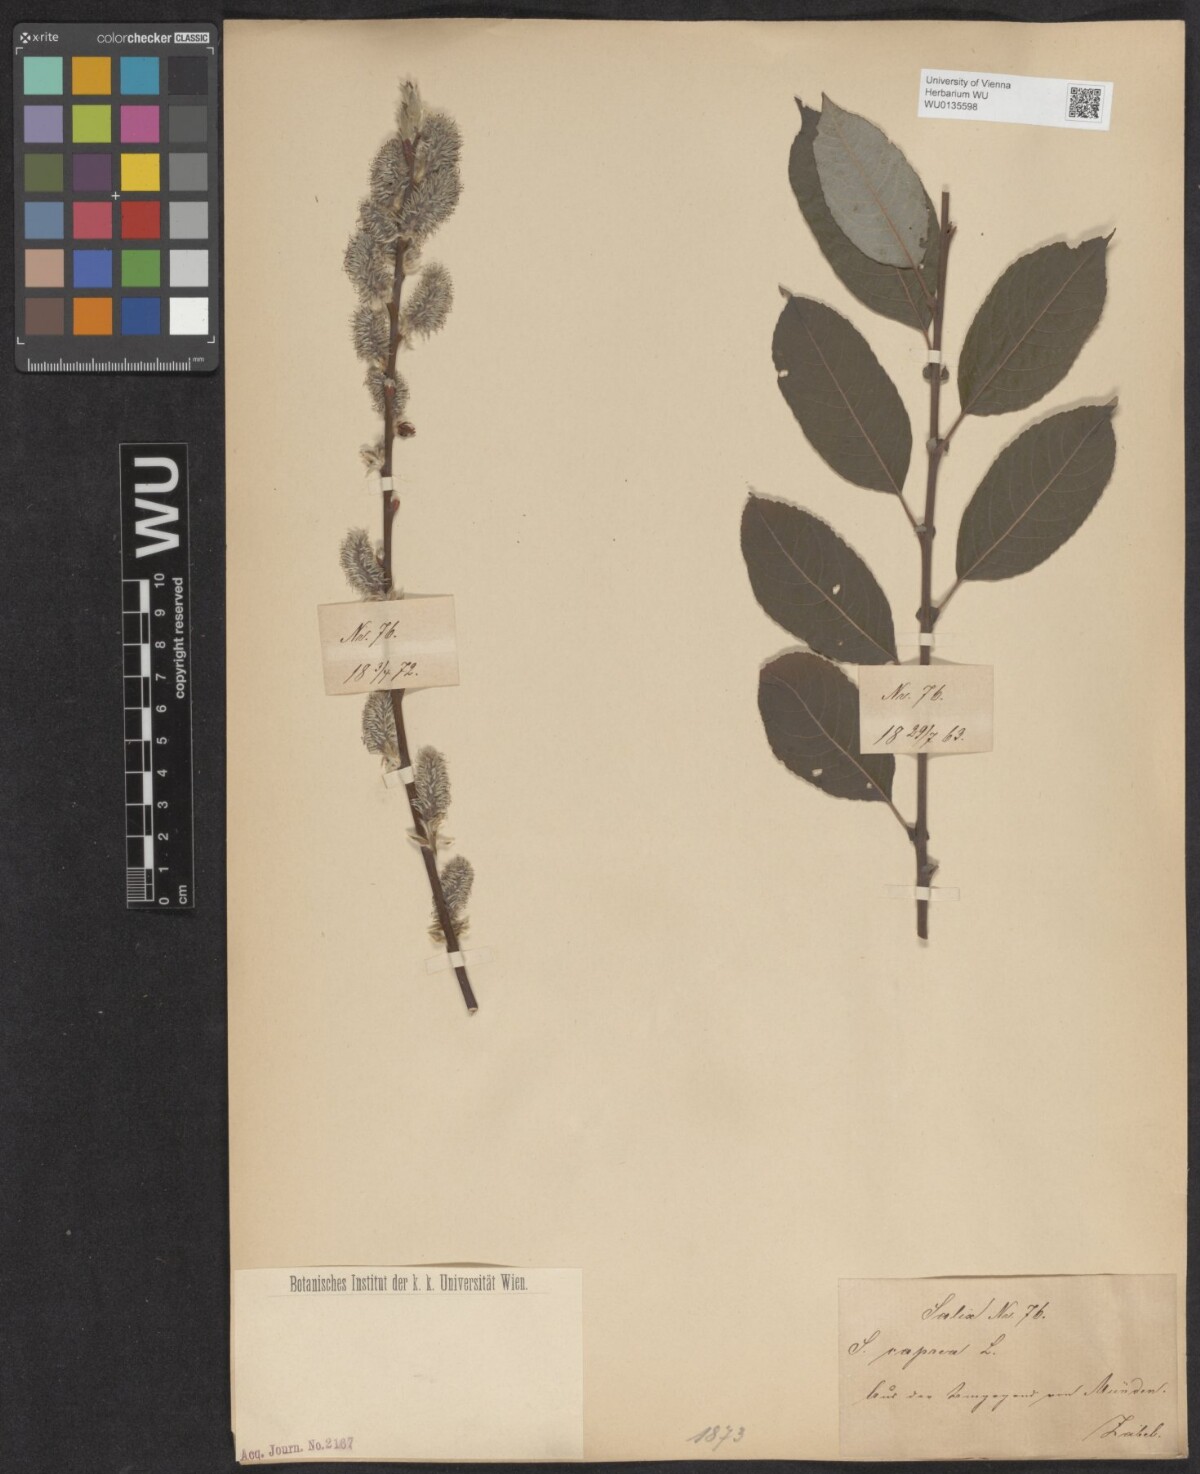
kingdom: Plantae
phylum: Tracheophyta
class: Magnoliopsida
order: Malpighiales
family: Salicaceae
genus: Salix
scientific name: Salix caprea
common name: Goat willow
